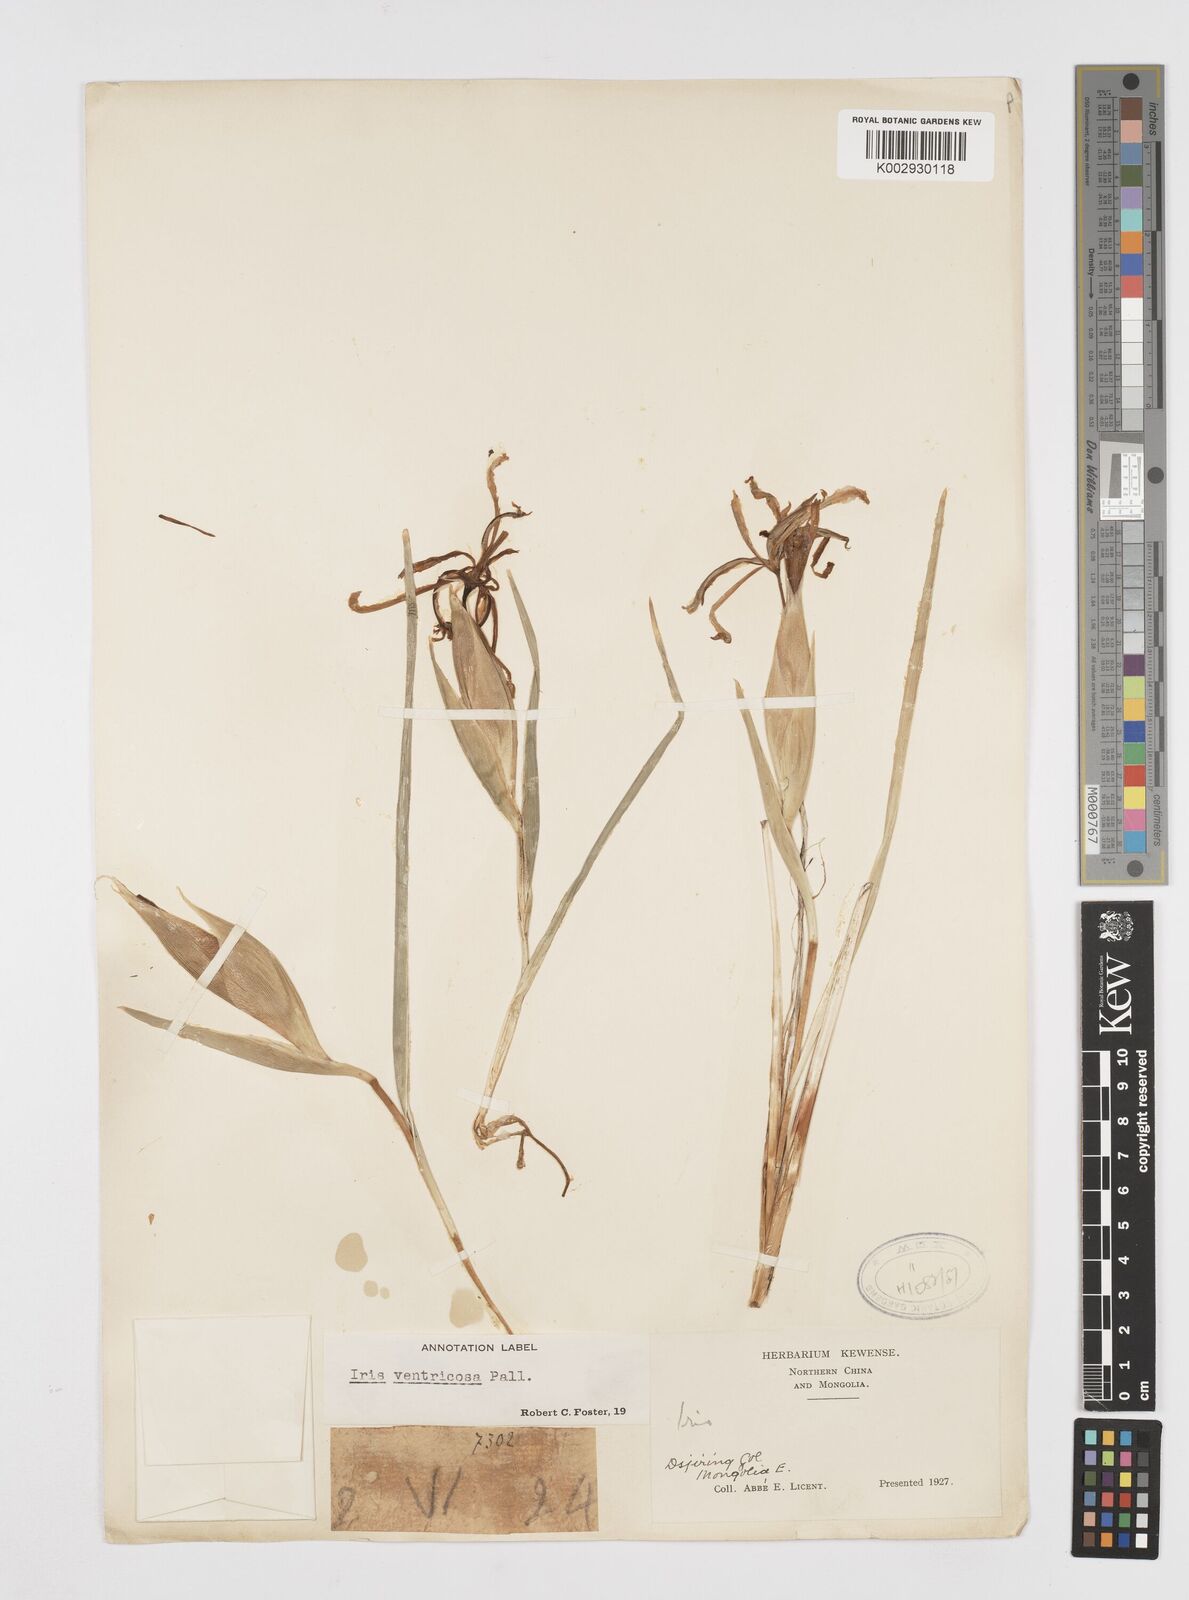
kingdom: Plantae
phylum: Tracheophyta
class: Liliopsida
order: Asparagales
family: Iridaceae
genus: Iris
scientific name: Iris ventricosa
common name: Purple-flower iris
